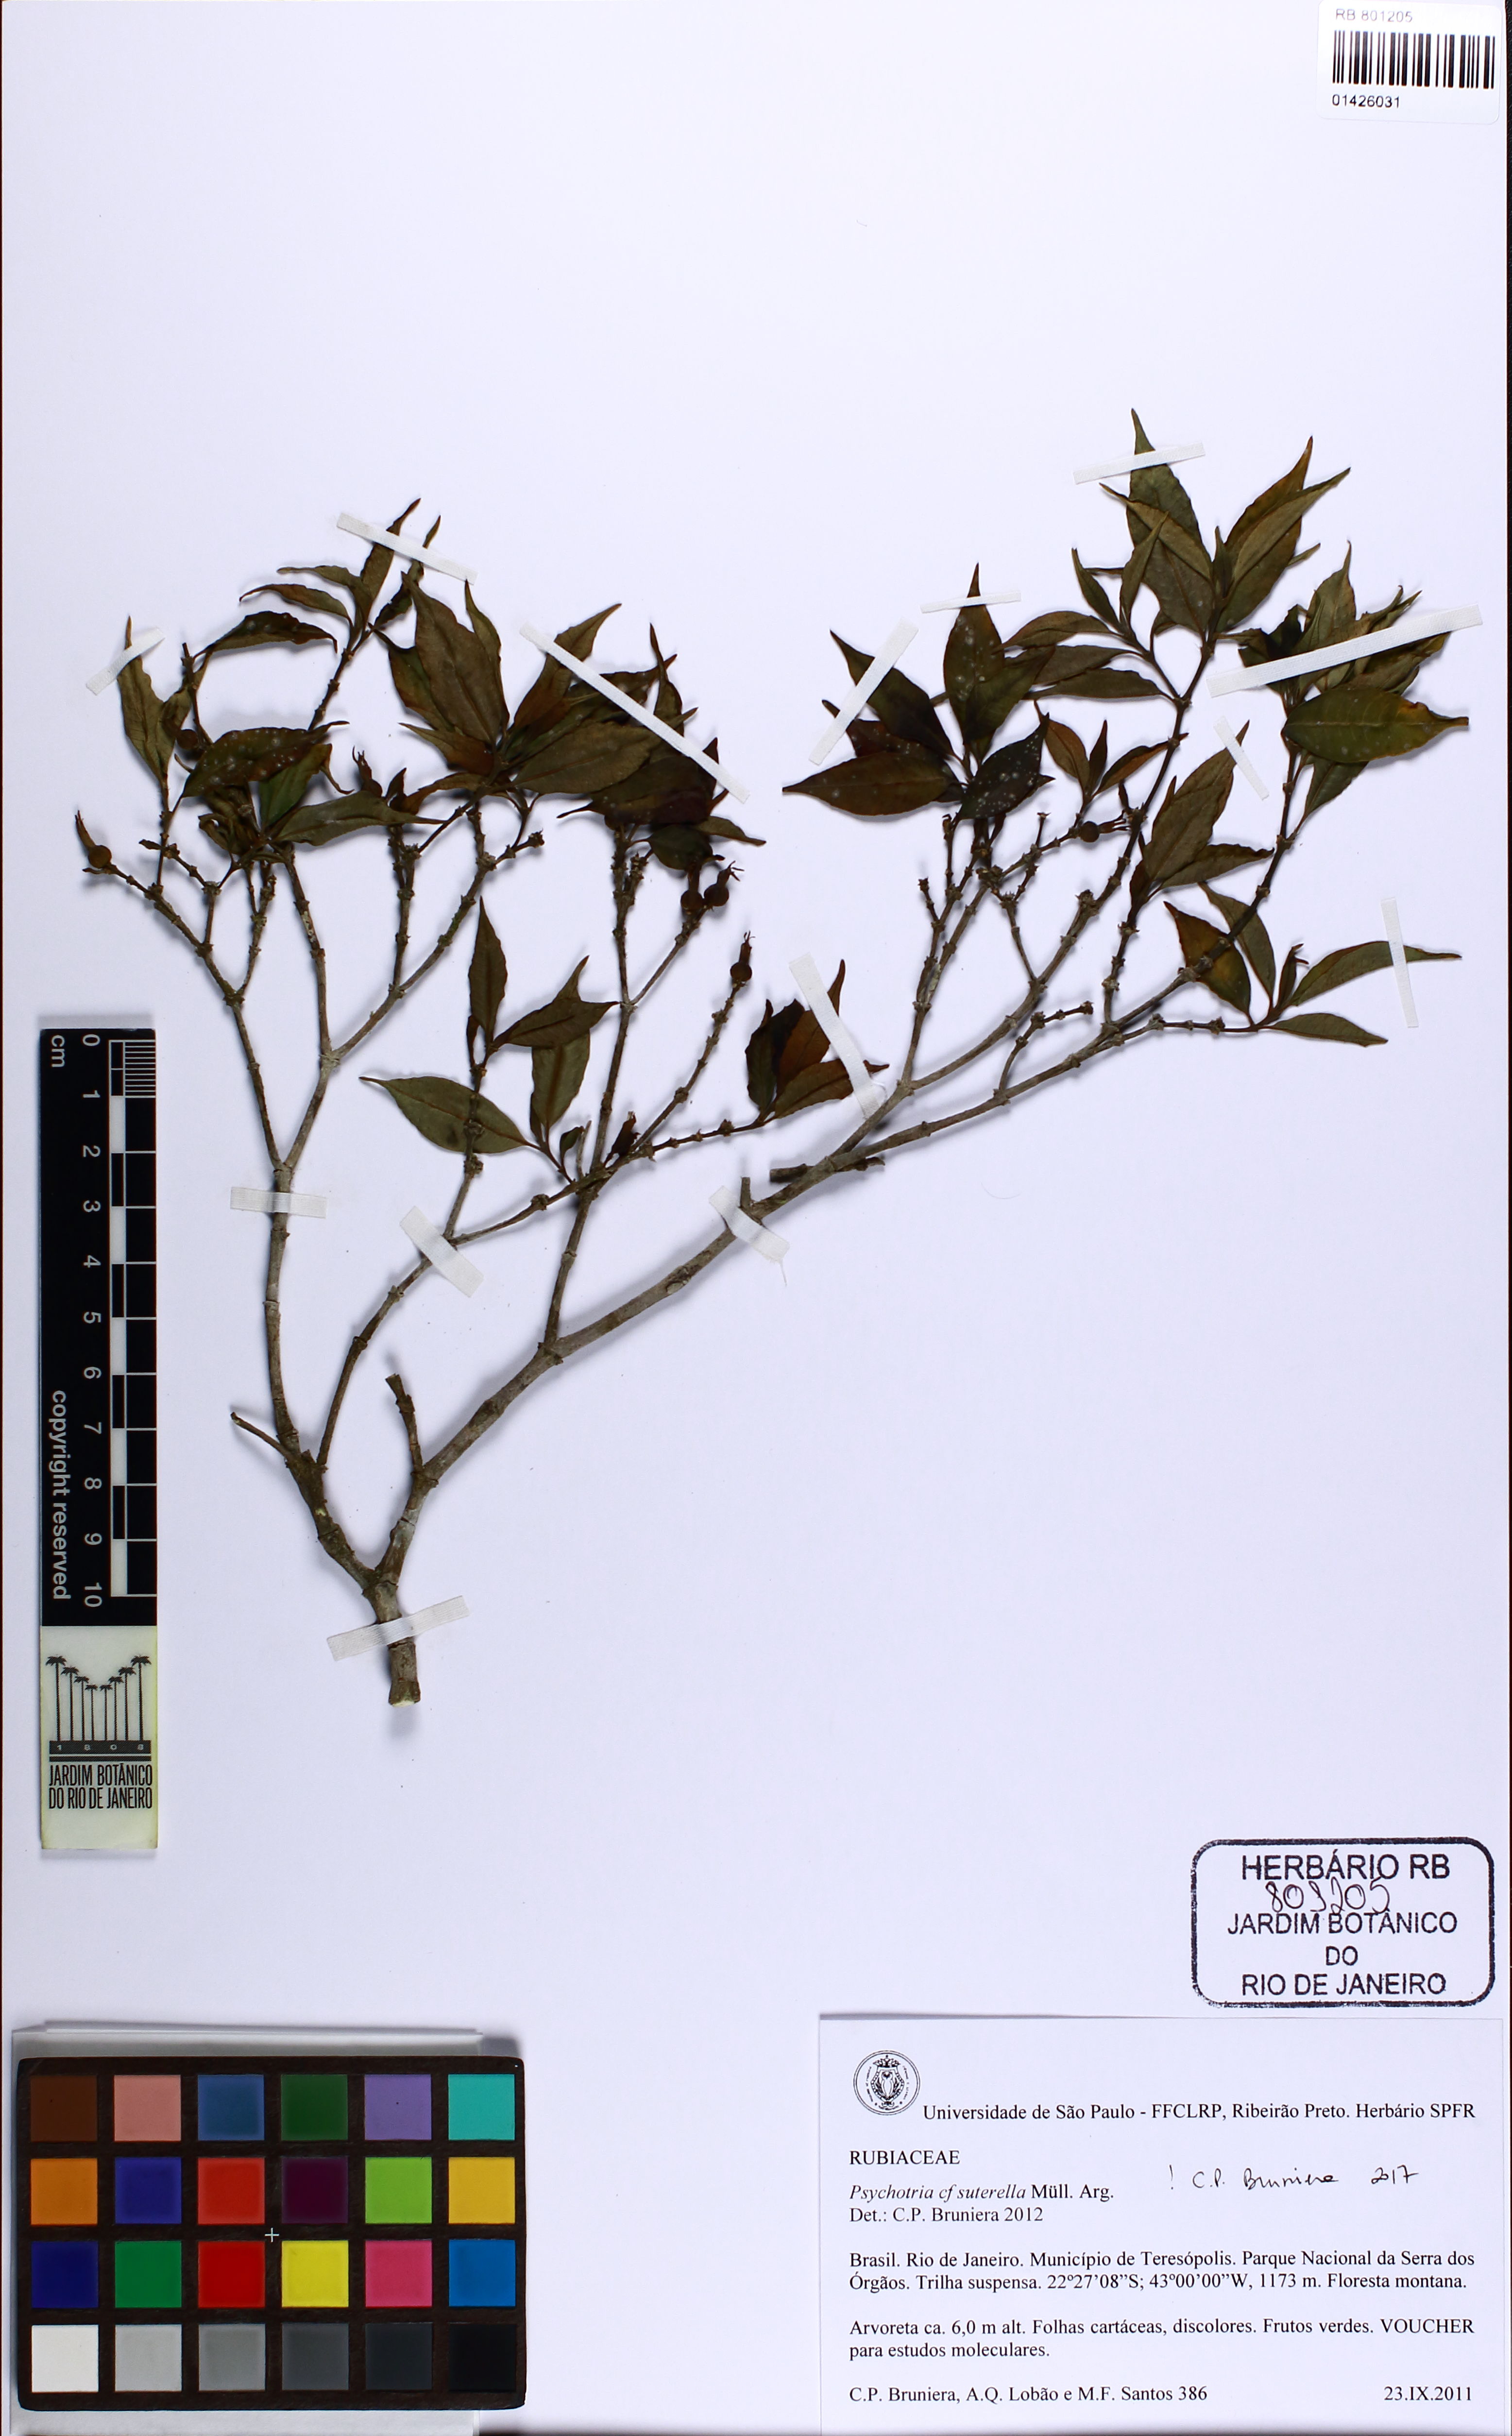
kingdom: Plantae
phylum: Tracheophyta
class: Magnoliopsida
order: Gentianales
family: Rubiaceae
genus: Psychotria
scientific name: Psychotria suterella
